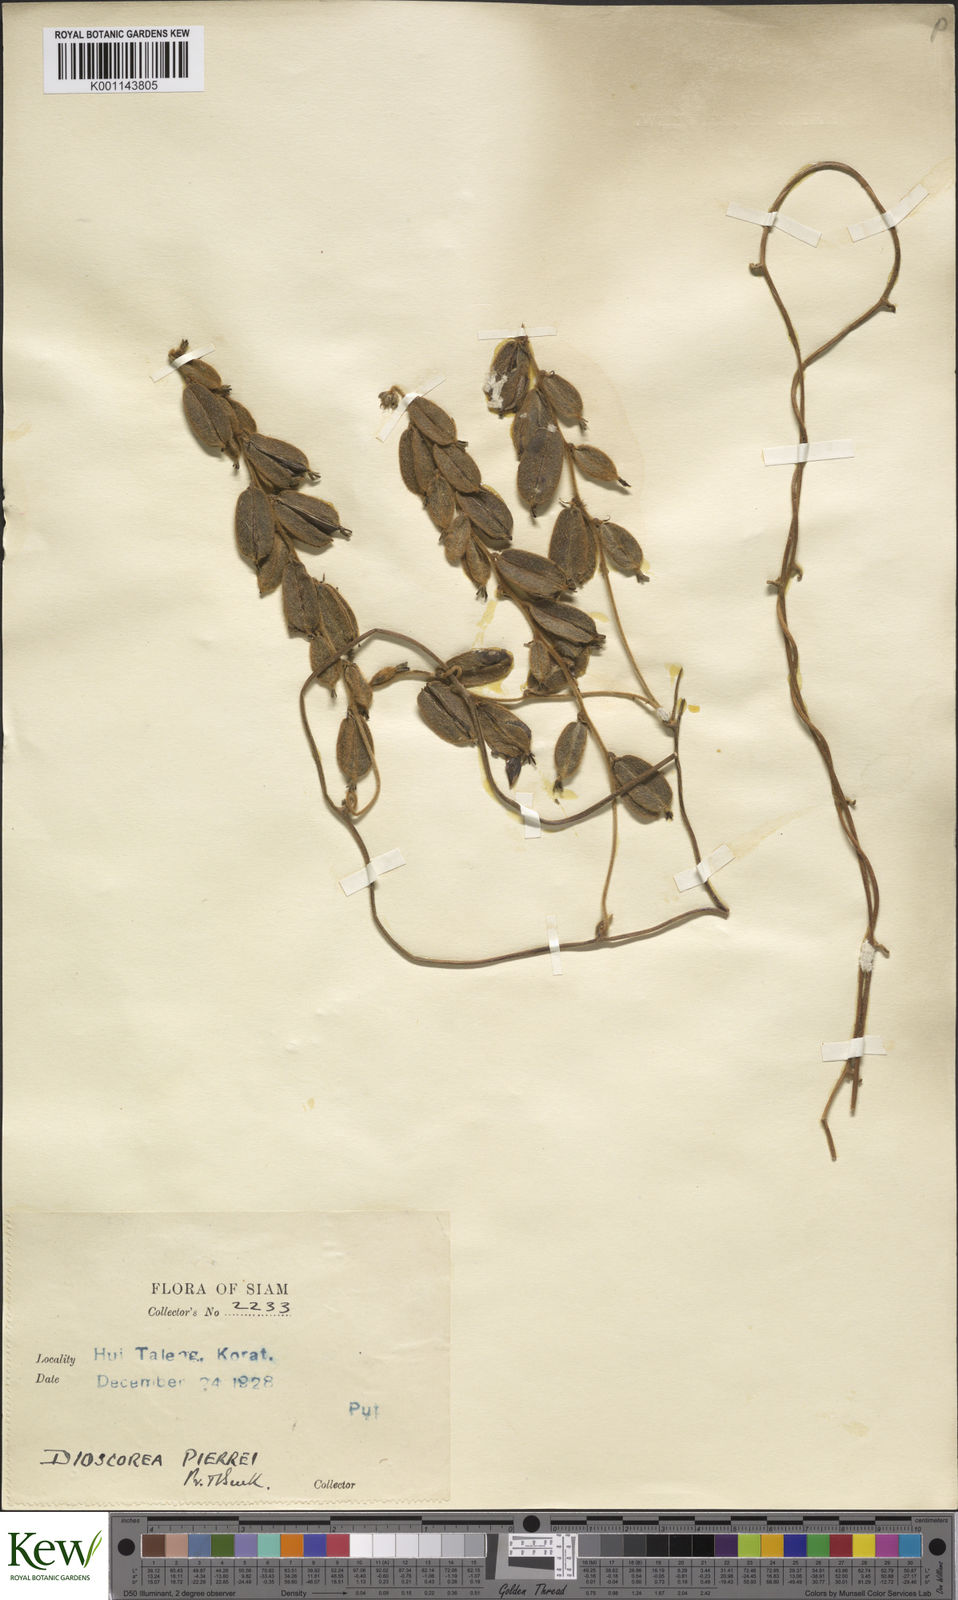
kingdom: Plantae
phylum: Tracheophyta
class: Liliopsida
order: Dioscoreales
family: Dioscoreaceae
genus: Dioscorea
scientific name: Dioscorea pierrei
